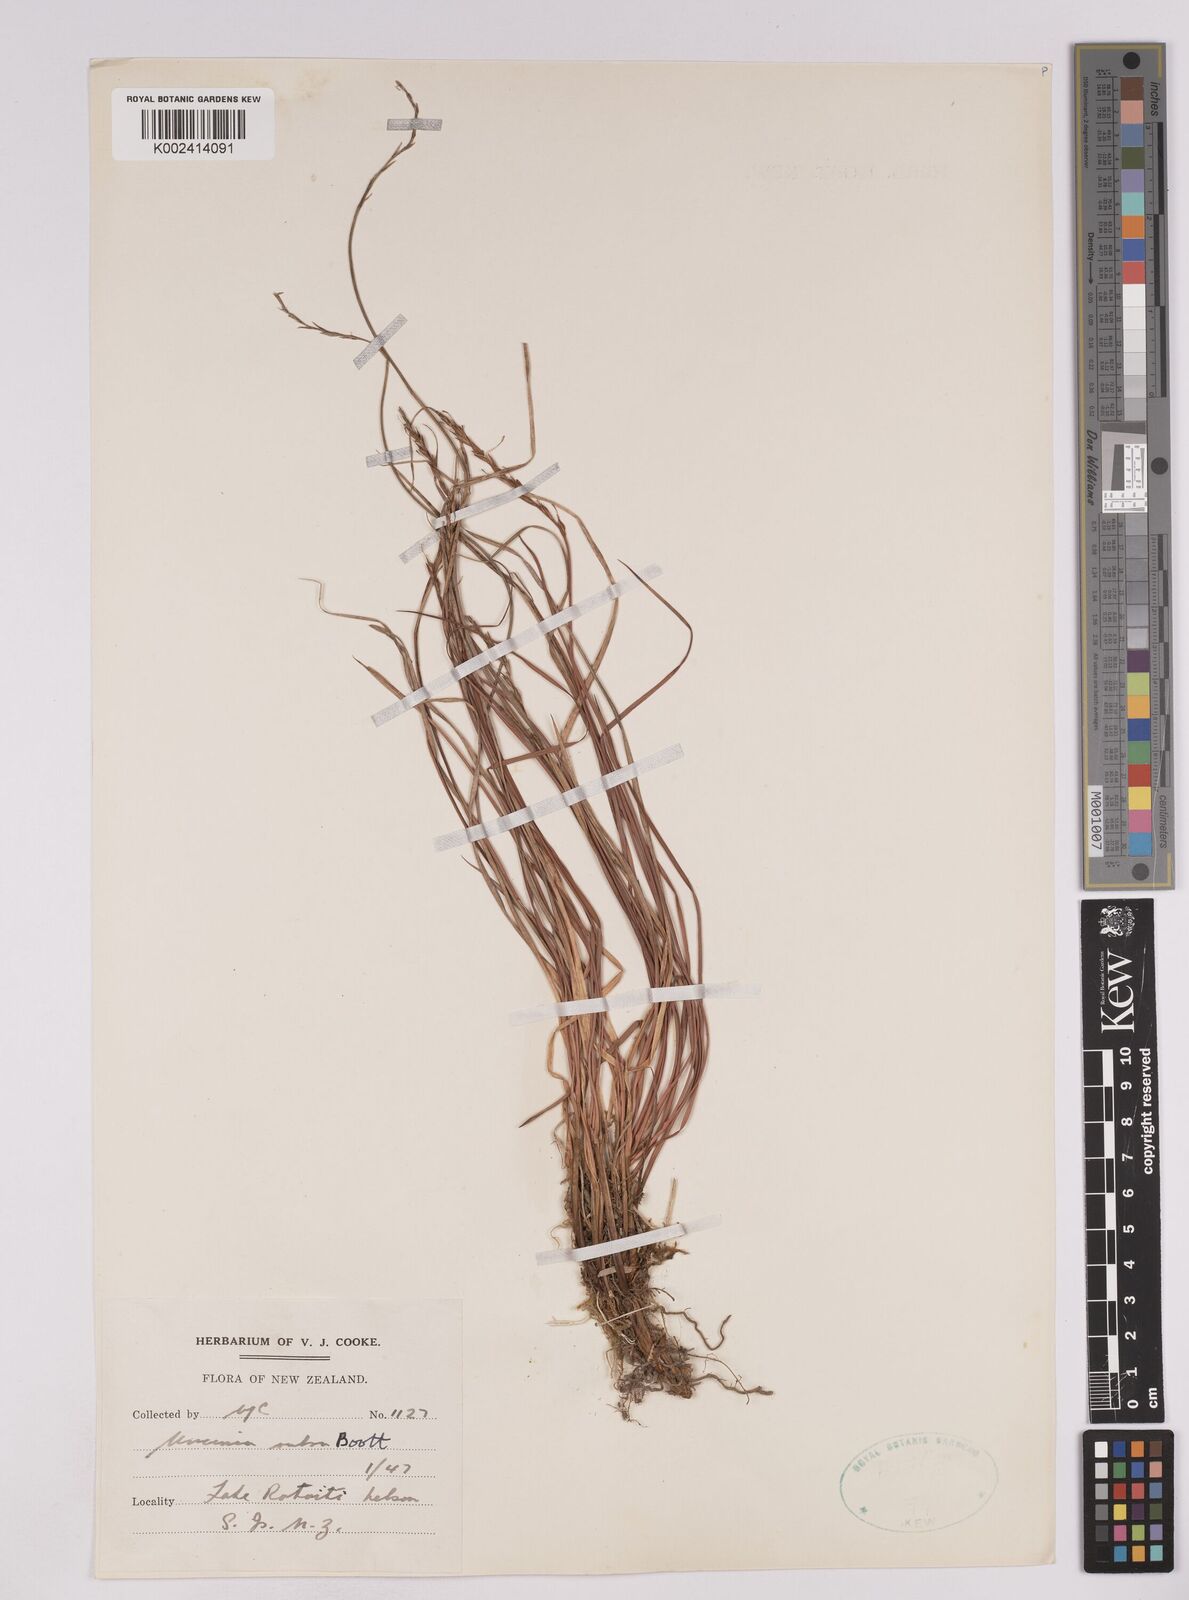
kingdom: Plantae
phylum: Tracheophyta
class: Liliopsida
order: Poales
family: Cyperaceae
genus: Carex
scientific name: Carex punicea
